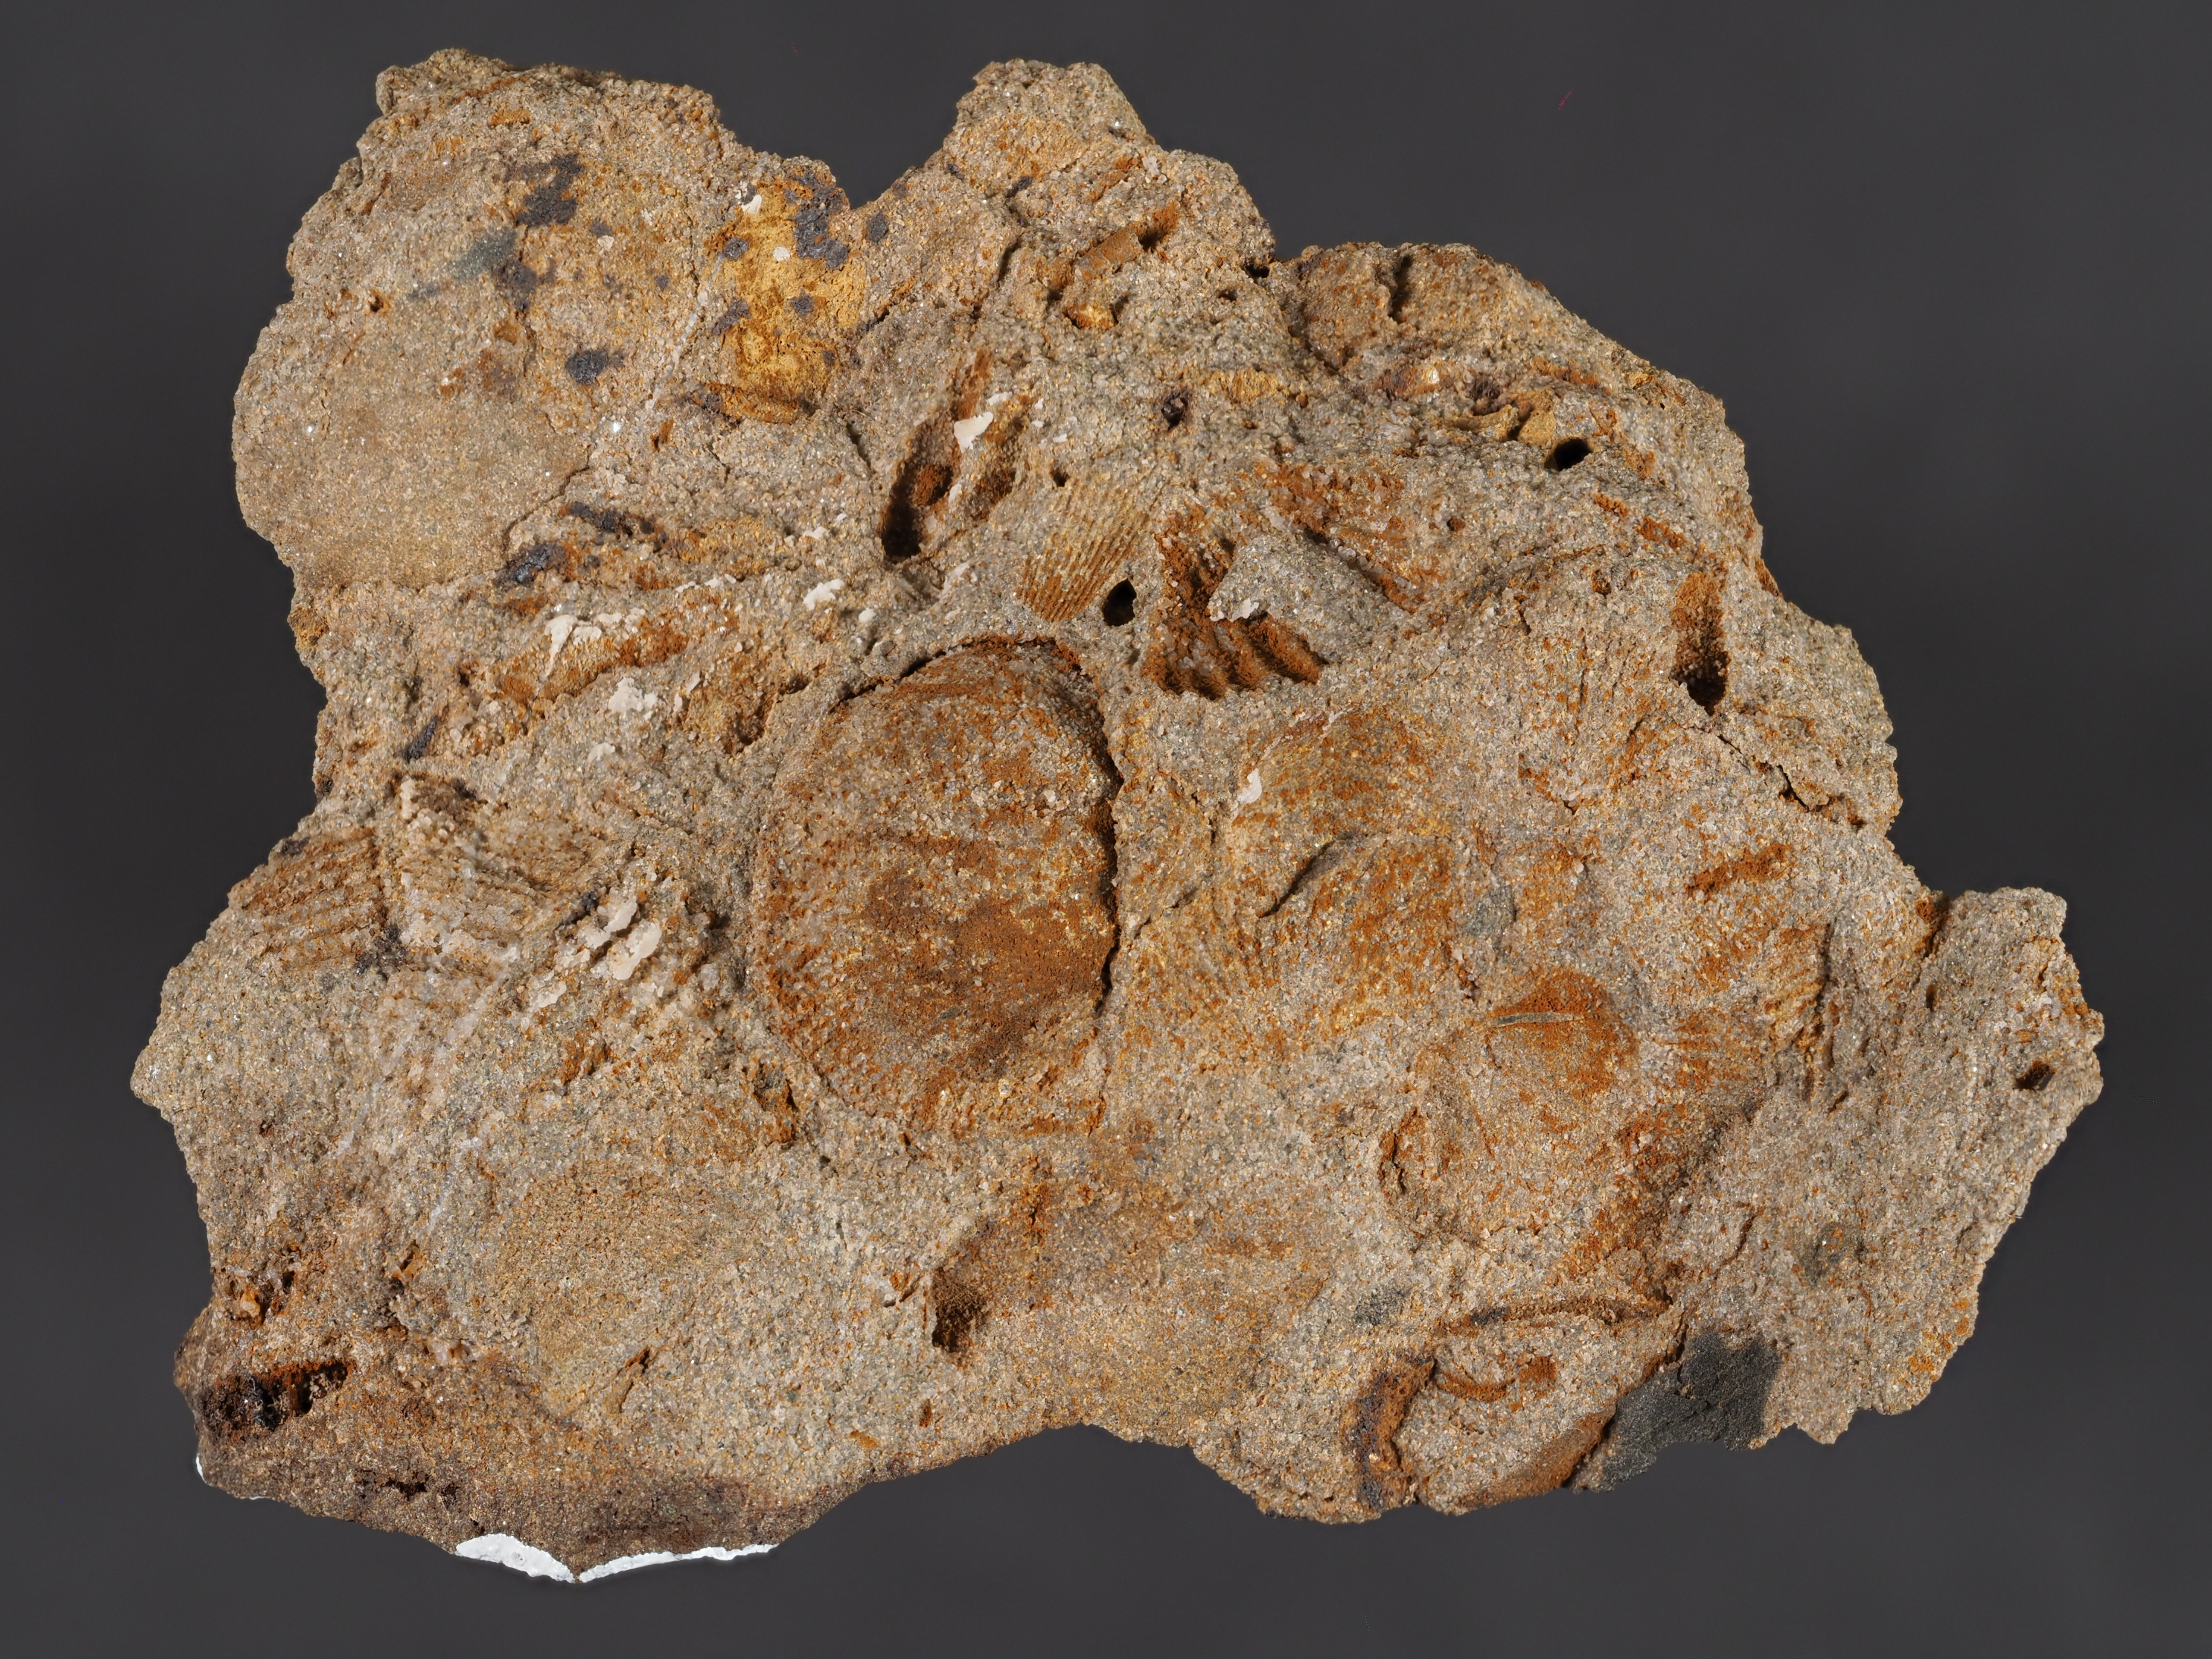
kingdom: Animalia
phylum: Arthropoda
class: Trilobita
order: Phacopida
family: Homalonotidae
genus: Digonus
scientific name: Digonus
